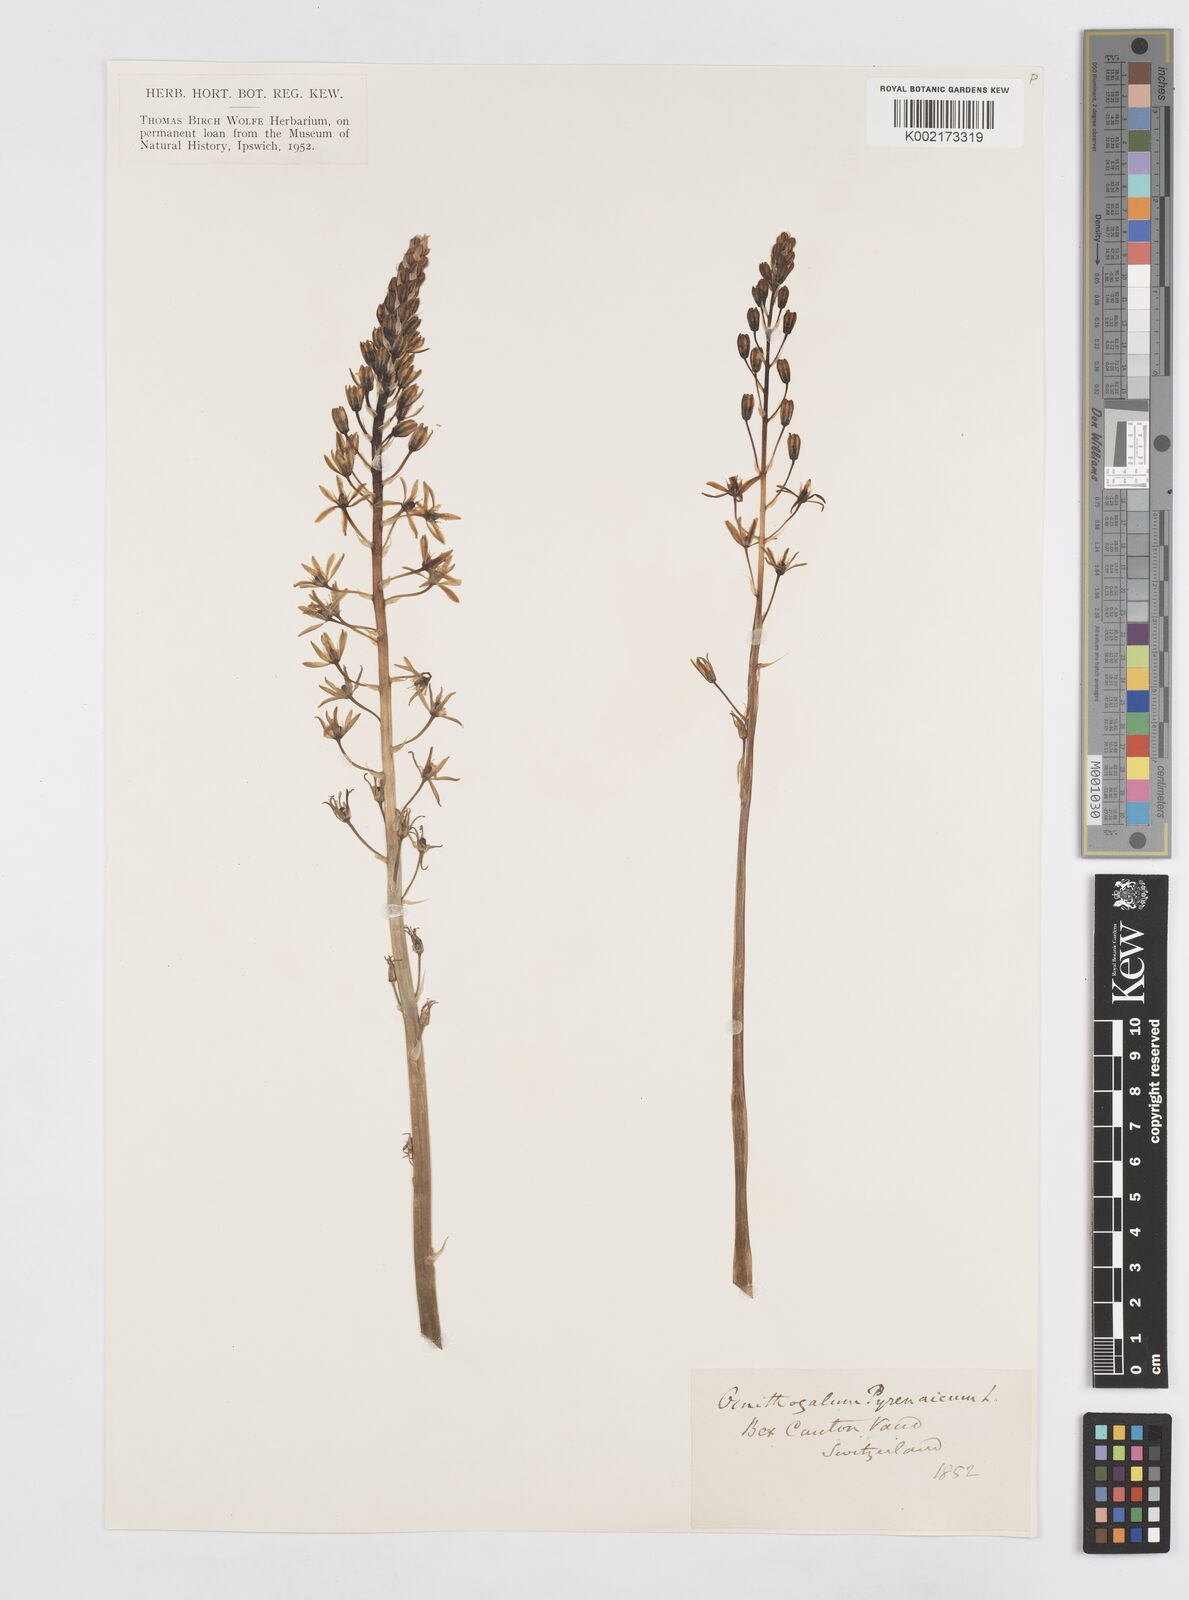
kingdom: Plantae
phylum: Tracheophyta
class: Liliopsida
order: Asparagales
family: Asparagaceae
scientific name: Asparagaceae
